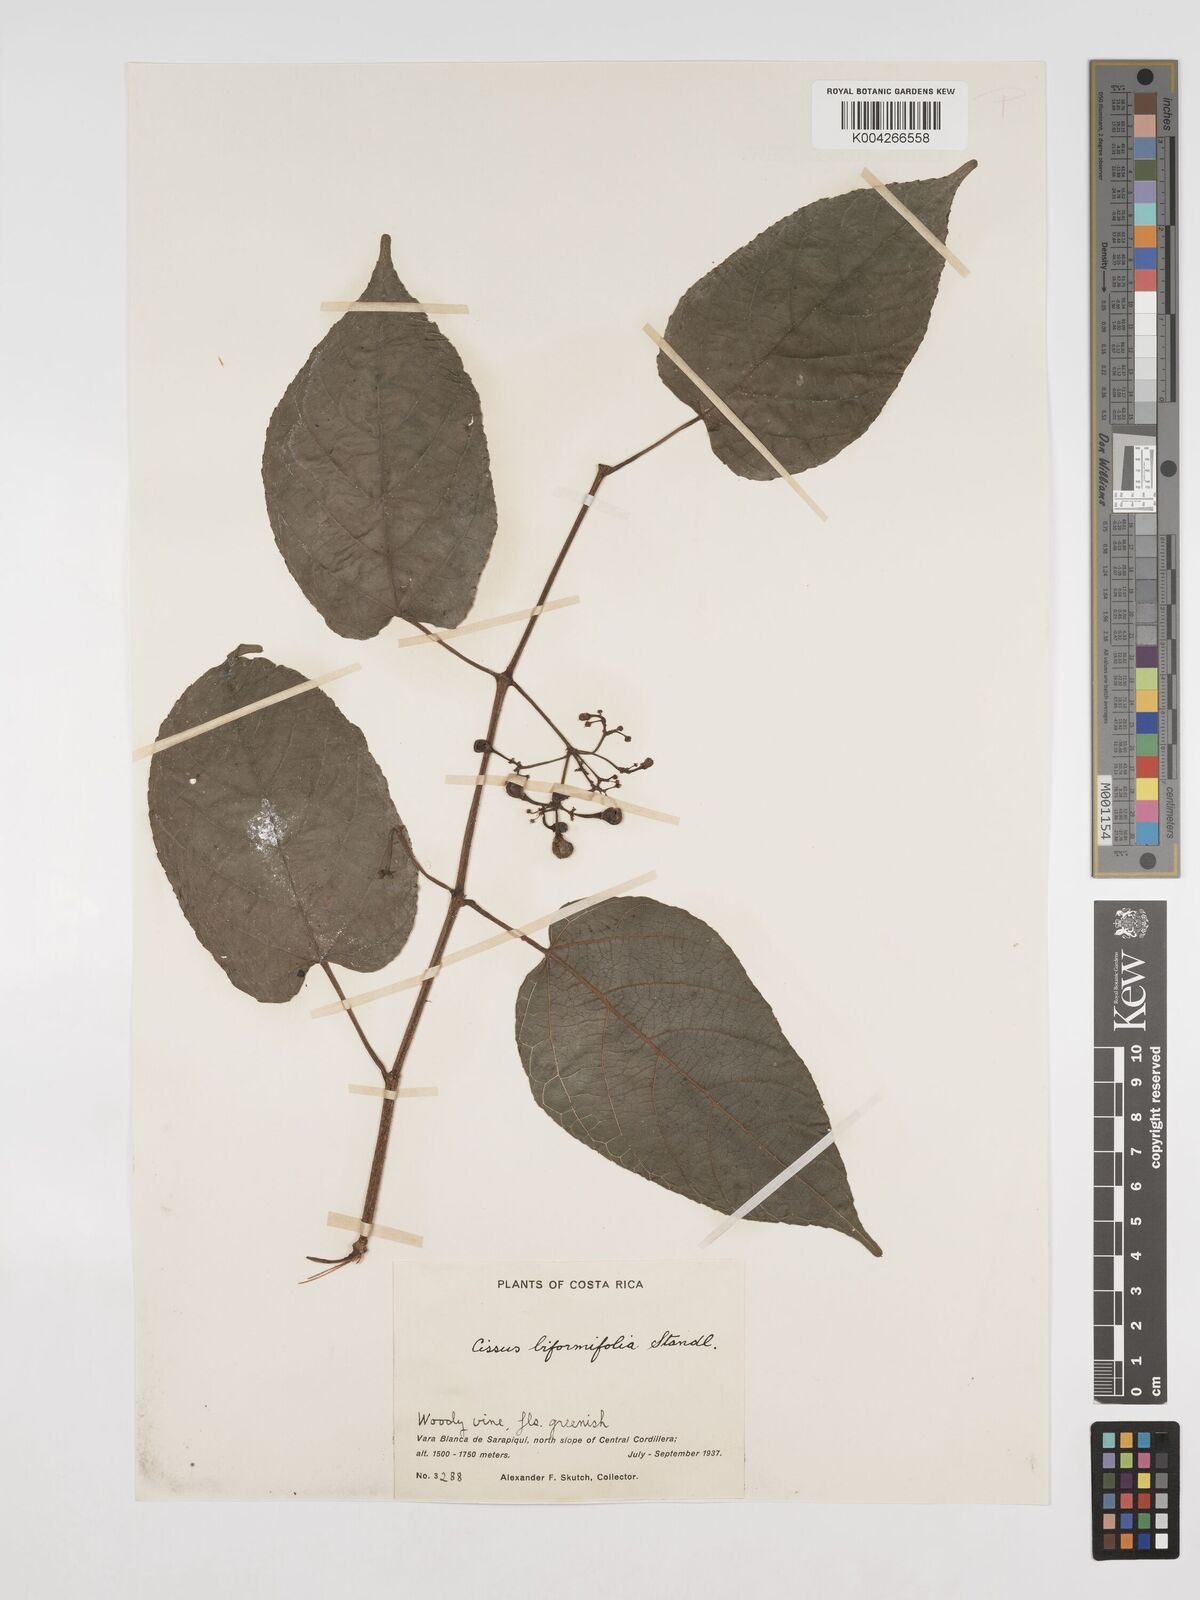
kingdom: Plantae
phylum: Tracheophyta
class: Magnoliopsida
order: Vitales
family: Vitaceae
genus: Cissus
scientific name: Cissus biformifolia
